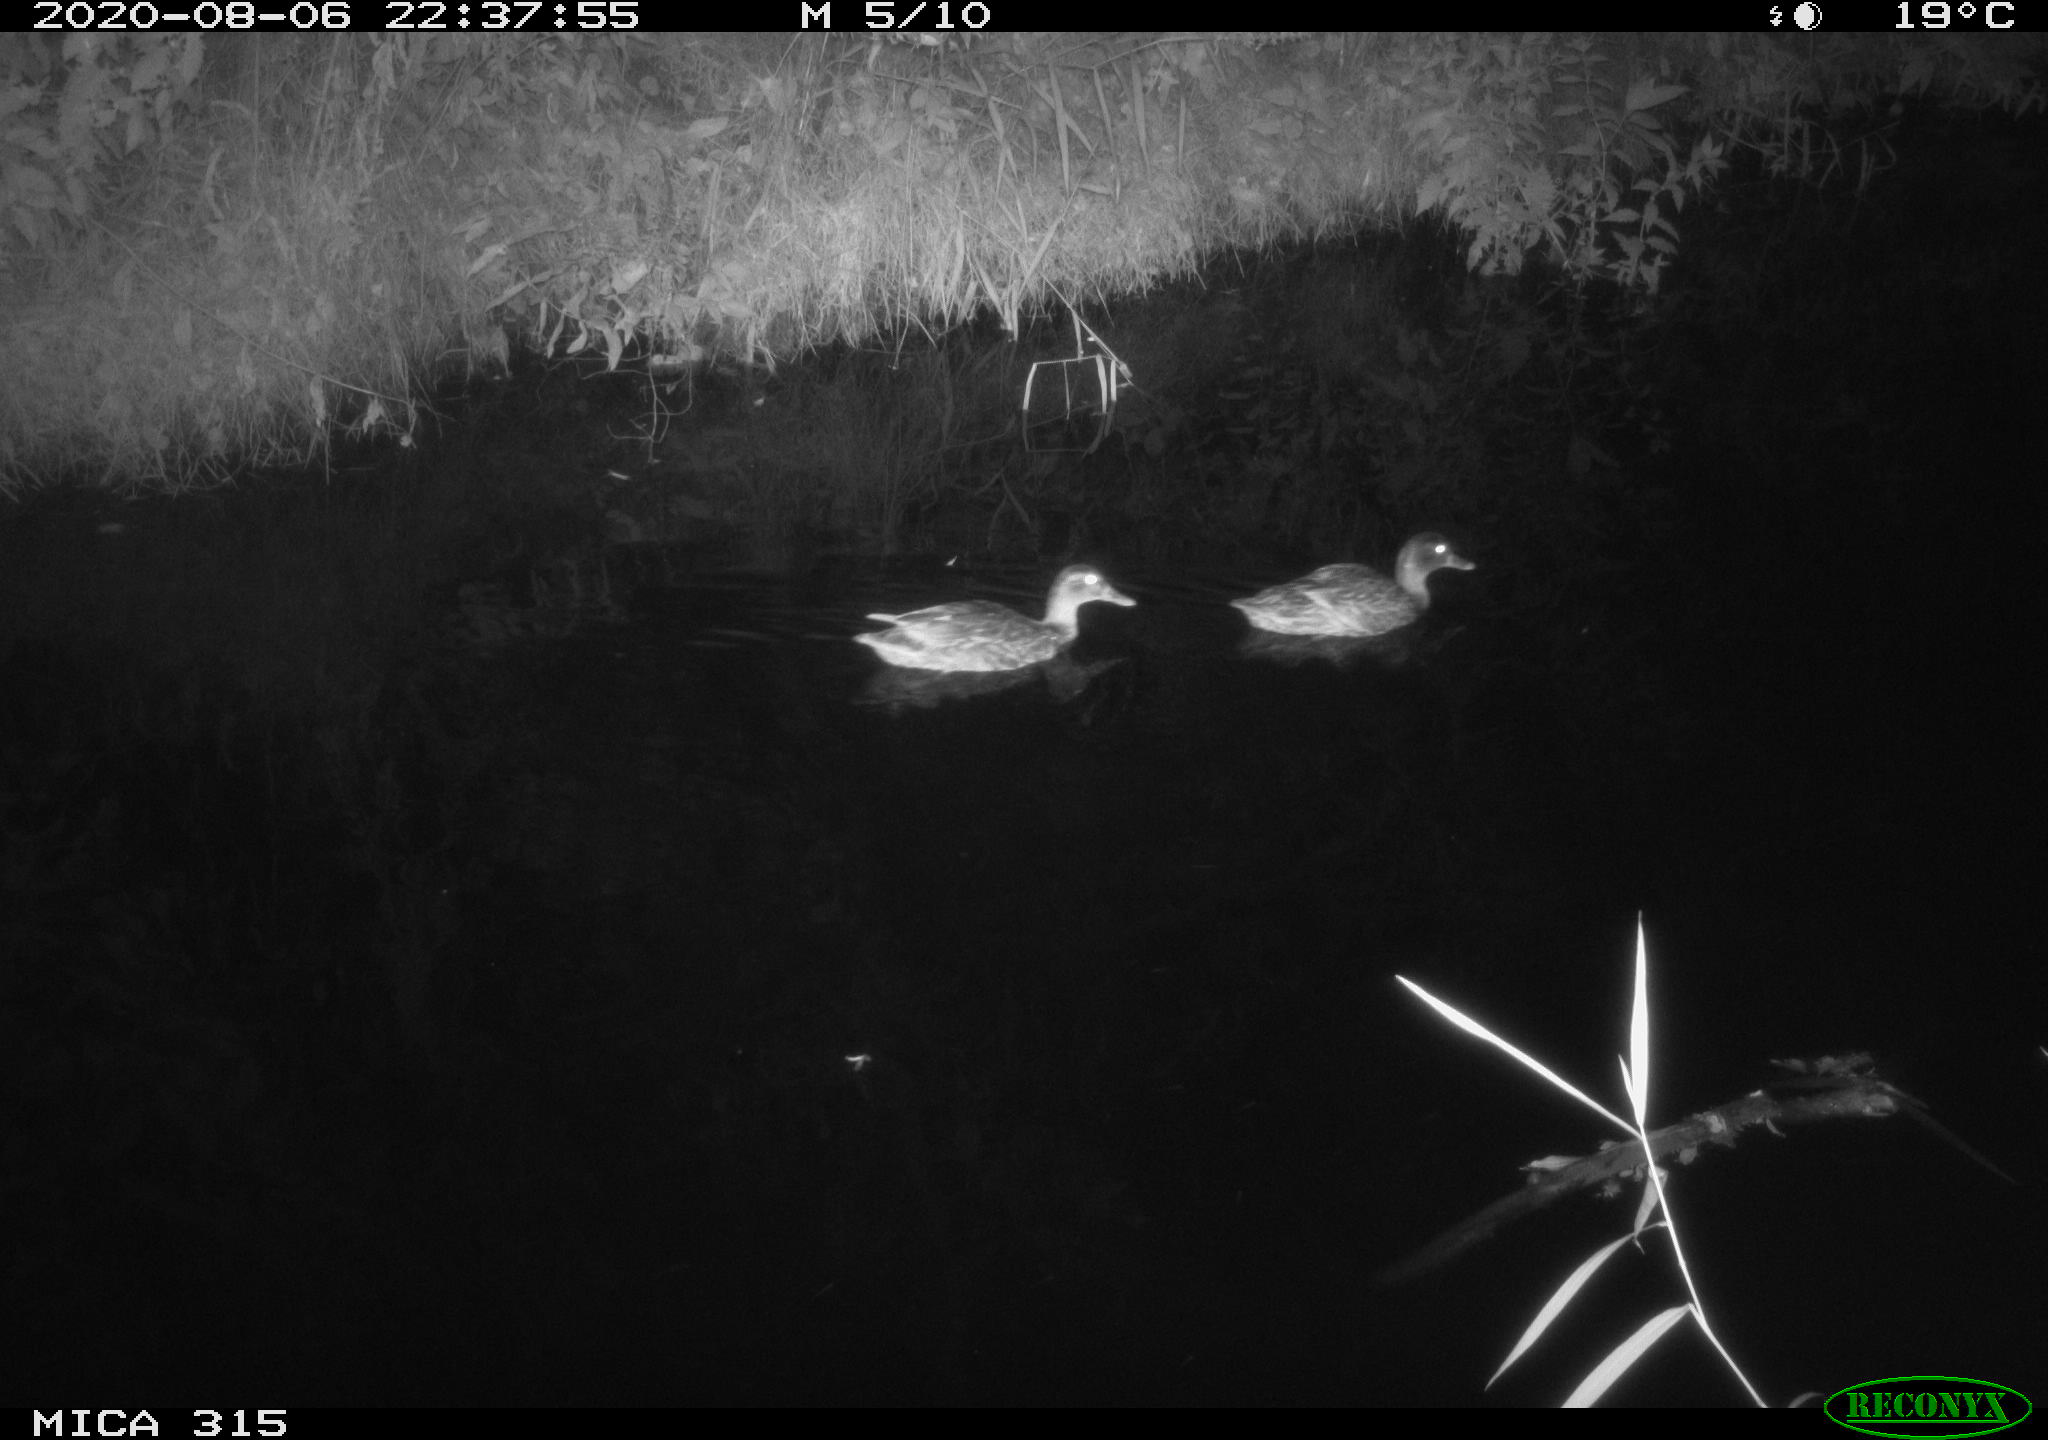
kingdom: Animalia
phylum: Chordata
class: Aves
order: Anseriformes
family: Anatidae
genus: Anas
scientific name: Anas platyrhynchos
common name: Mallard
